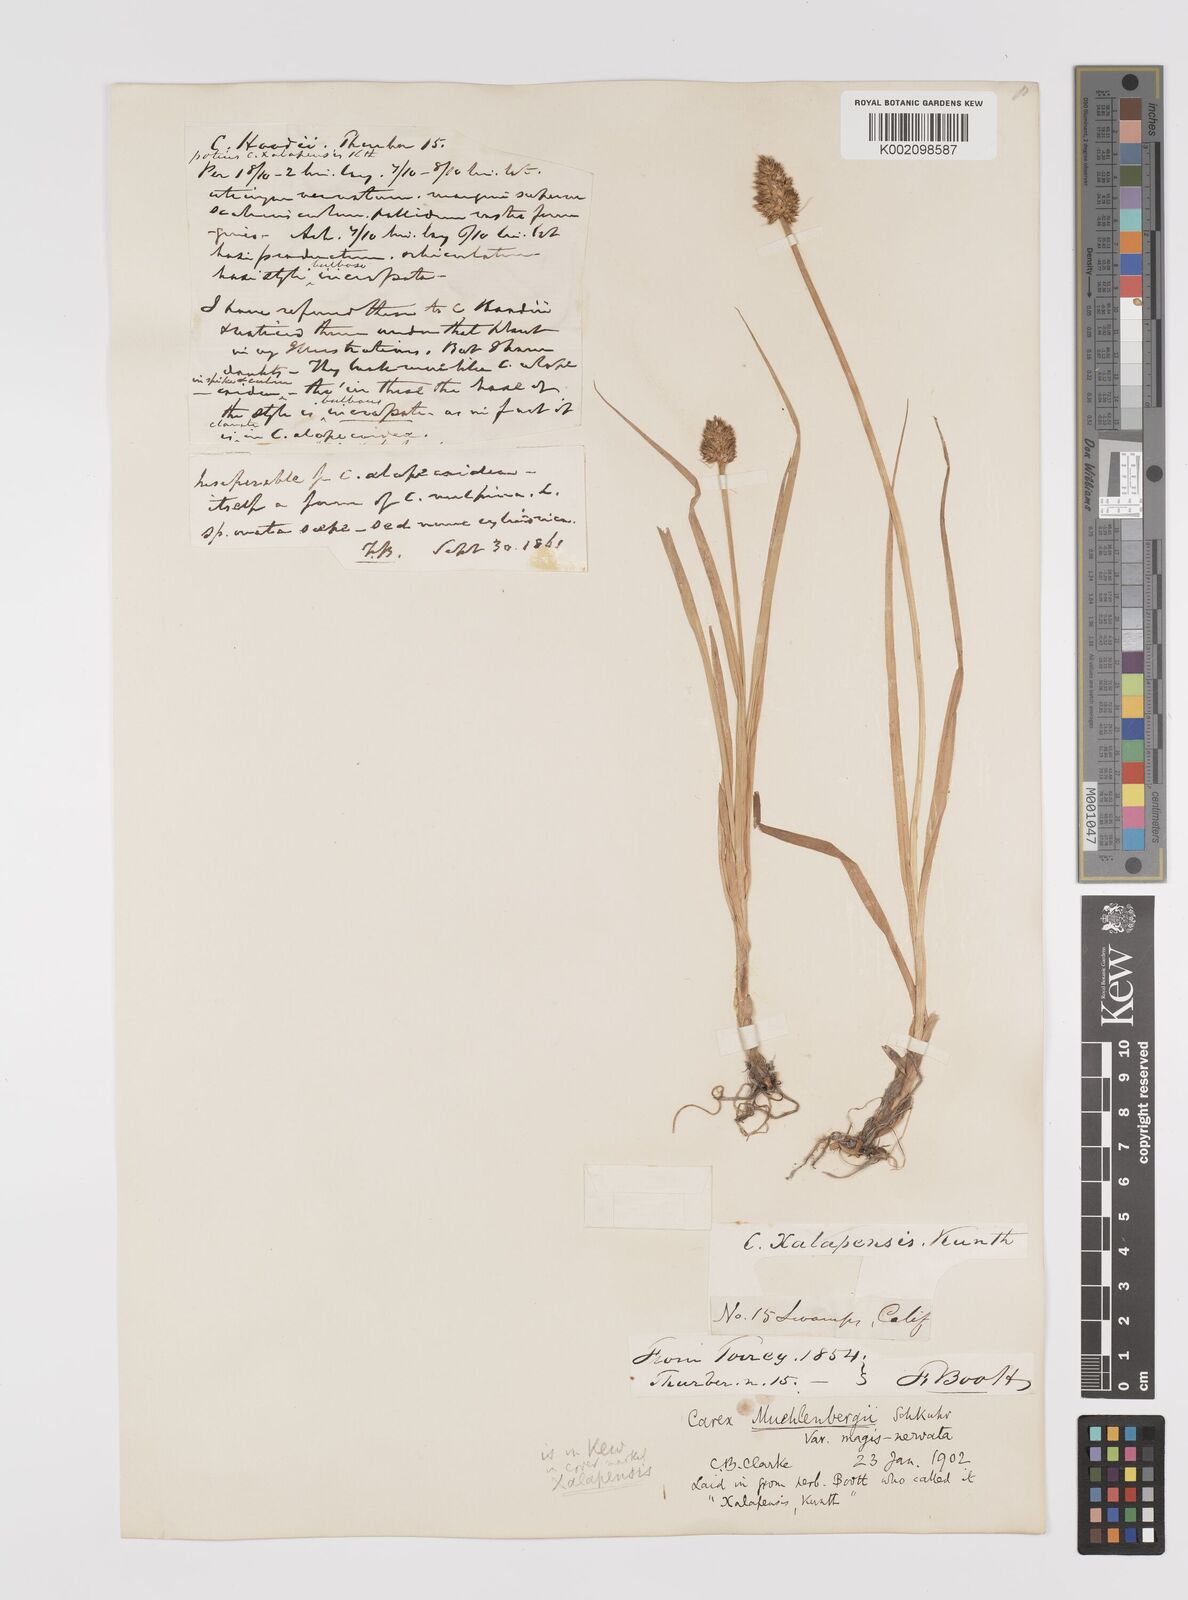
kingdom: Plantae
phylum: Tracheophyta
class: Liliopsida
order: Poales
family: Cyperaceae
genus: Carex
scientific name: Carex vulpinoidea
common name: American fox-sedge
